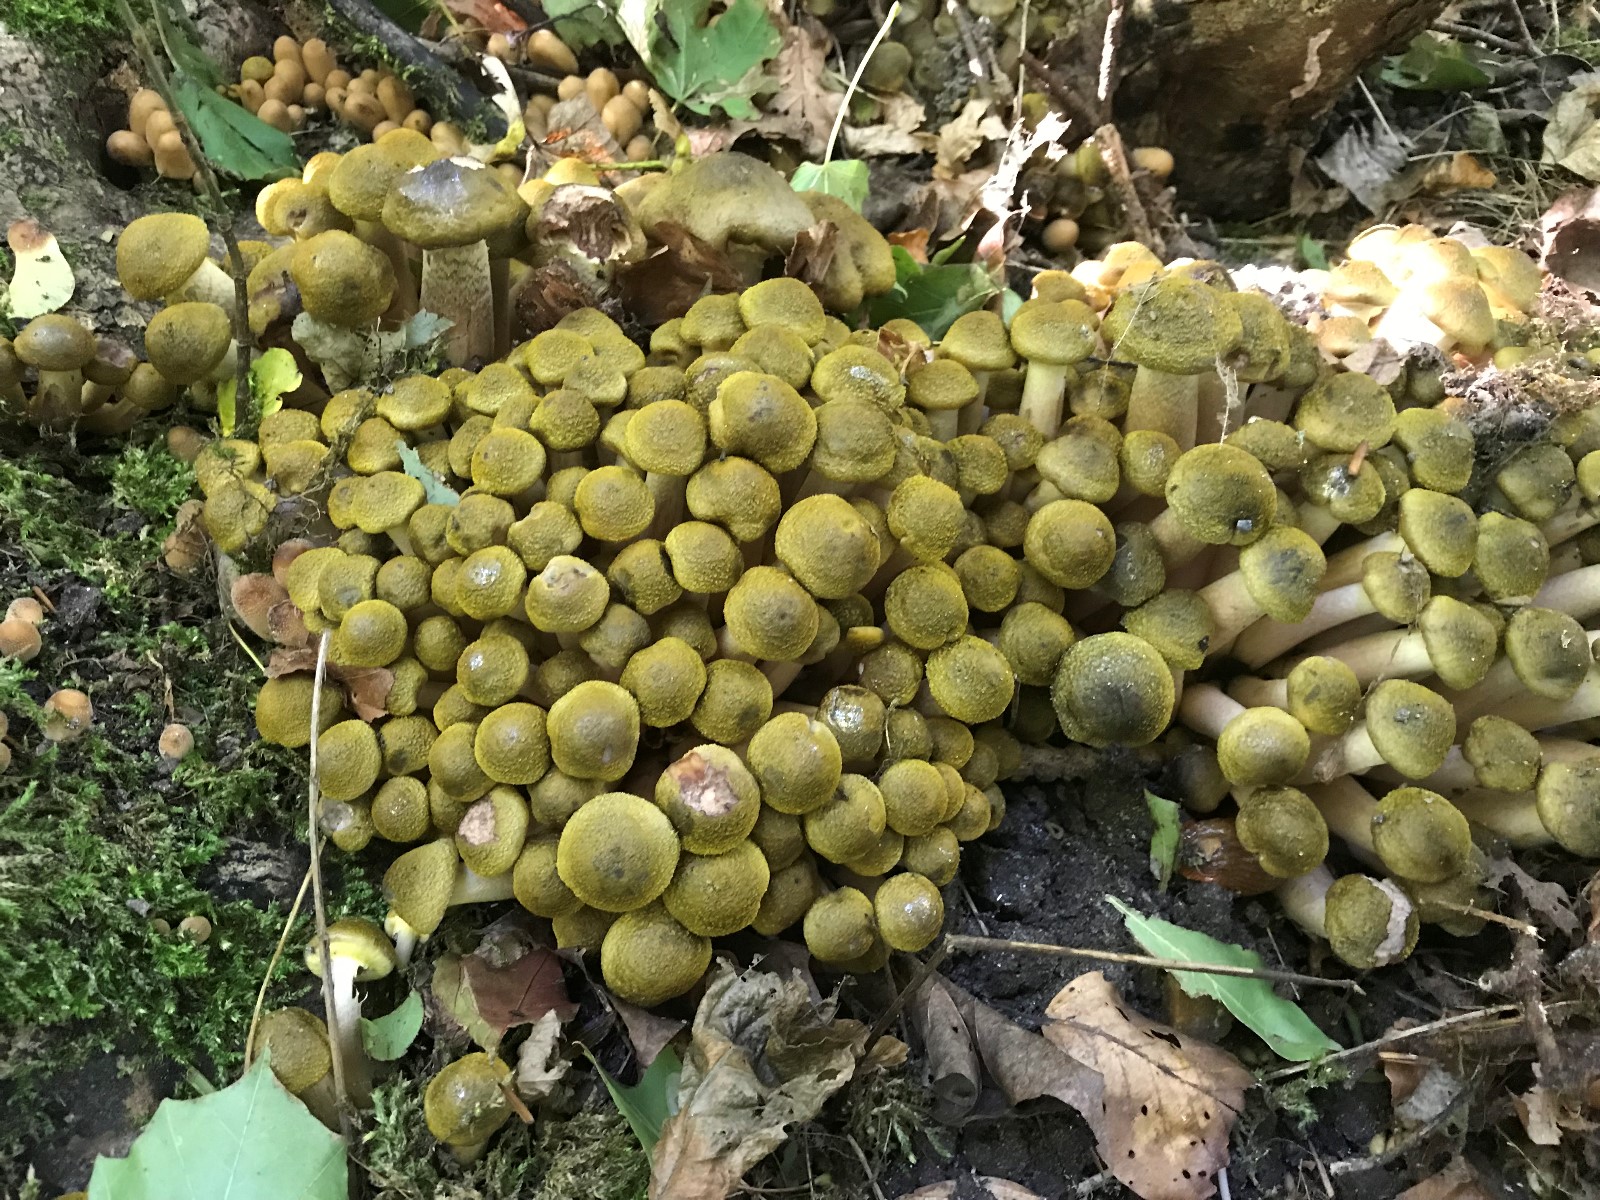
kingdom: Fungi
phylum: Basidiomycota
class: Agaricomycetes
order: Agaricales
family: Physalacriaceae
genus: Armillaria
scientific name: Armillaria mellea
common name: ægte honningsvamp
